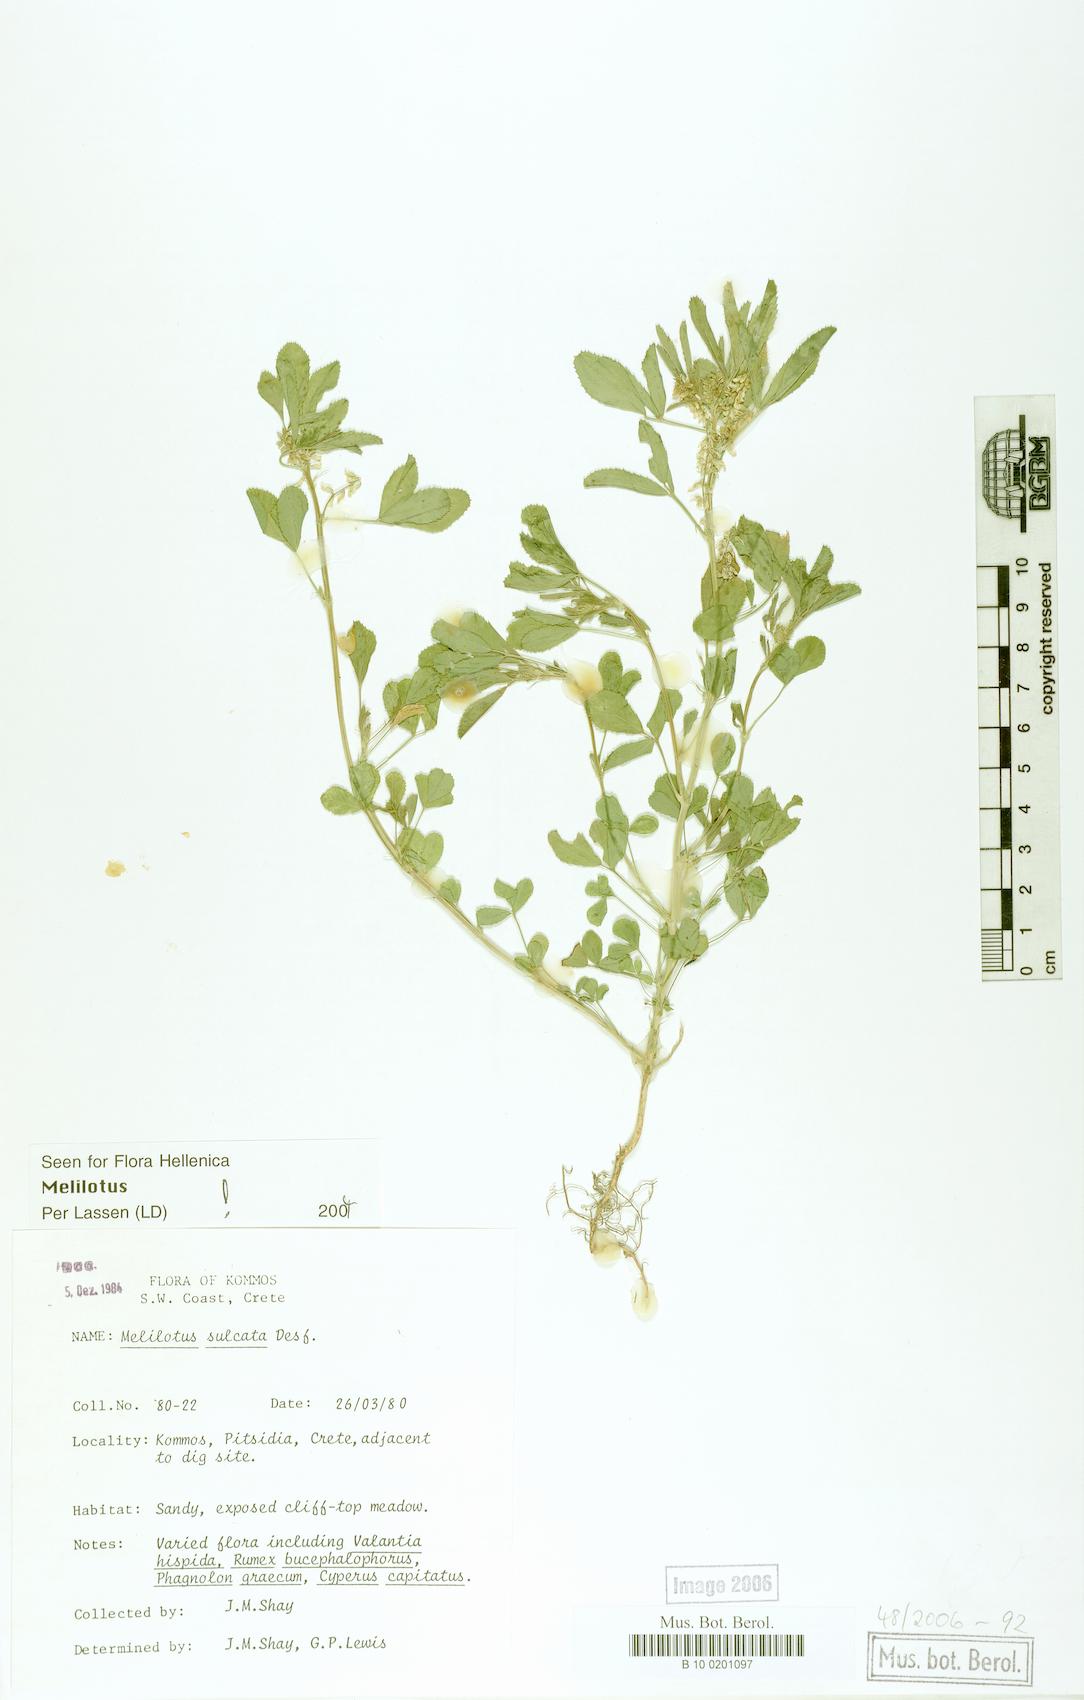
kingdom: Plantae
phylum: Tracheophyta
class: Magnoliopsida
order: Fabales
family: Fabaceae
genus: Melilotus
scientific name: Melilotus sulcatus
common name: Furrowed melilot
